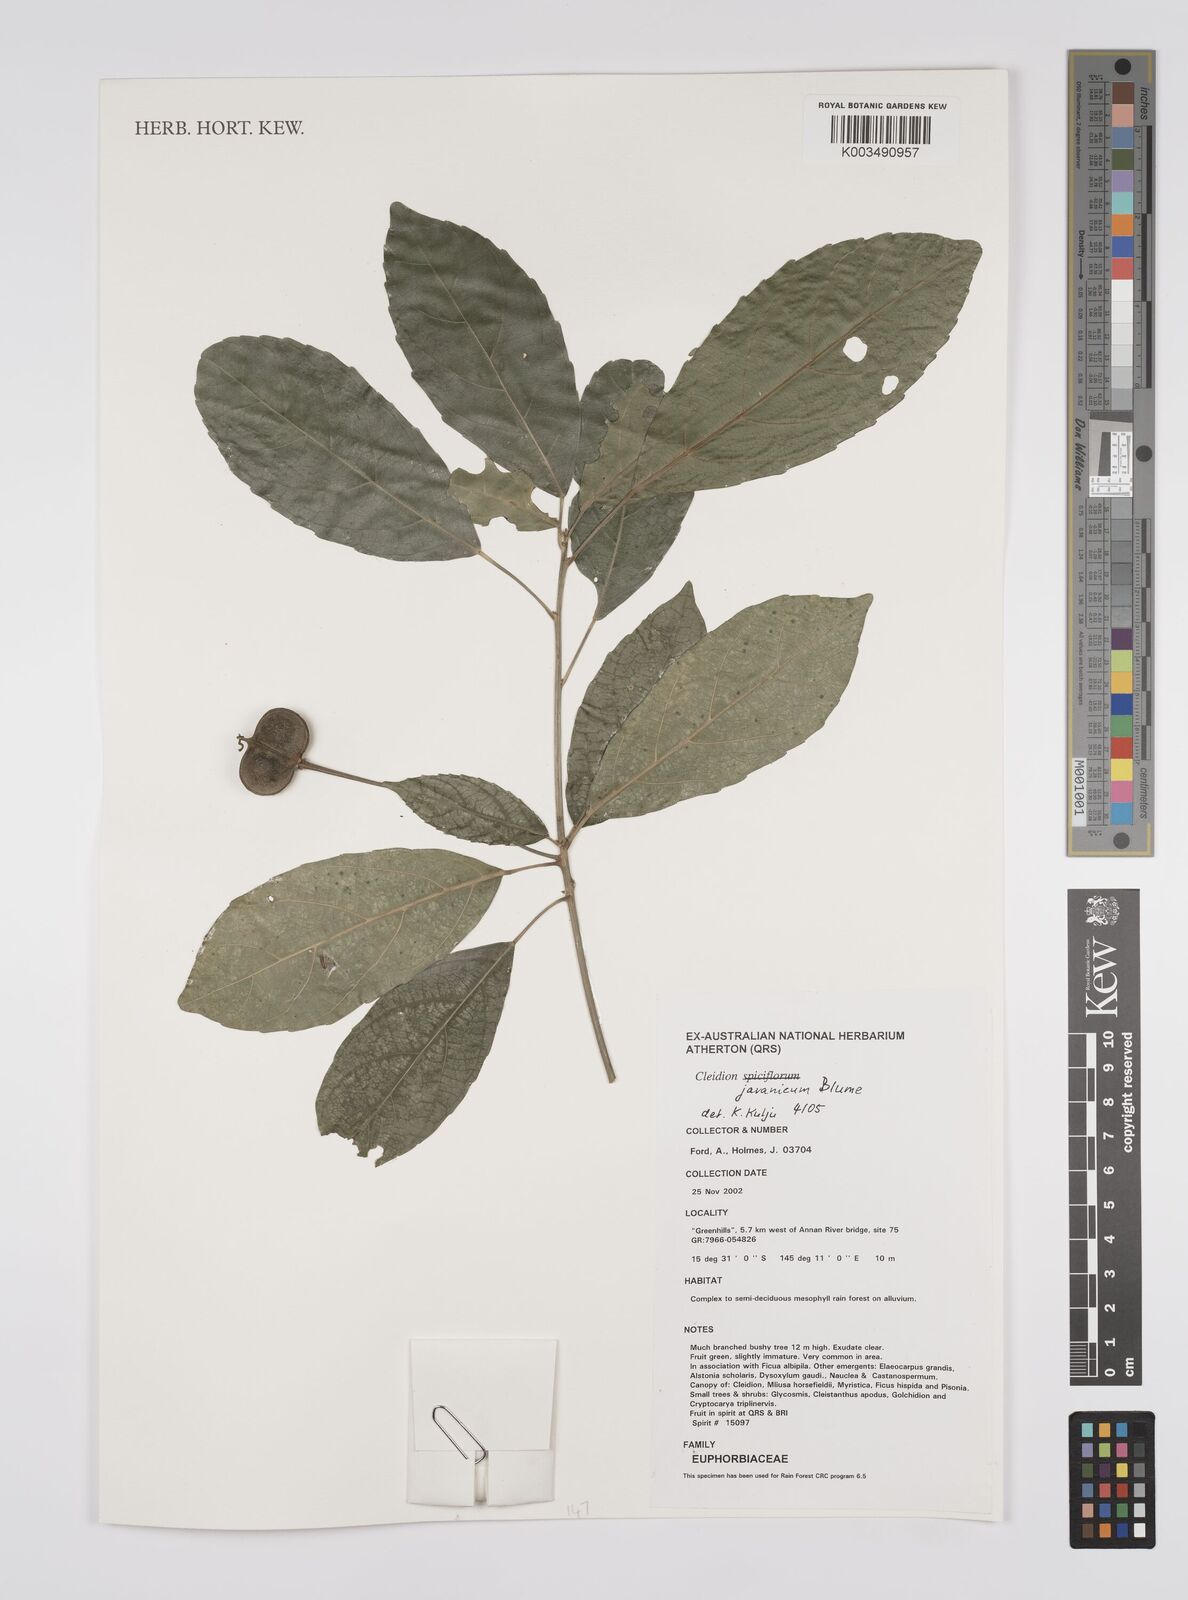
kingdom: Plantae
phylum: Tracheophyta
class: Magnoliopsida
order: Malpighiales
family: Euphorbiaceae
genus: Cleidion
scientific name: Cleidion javanicum
